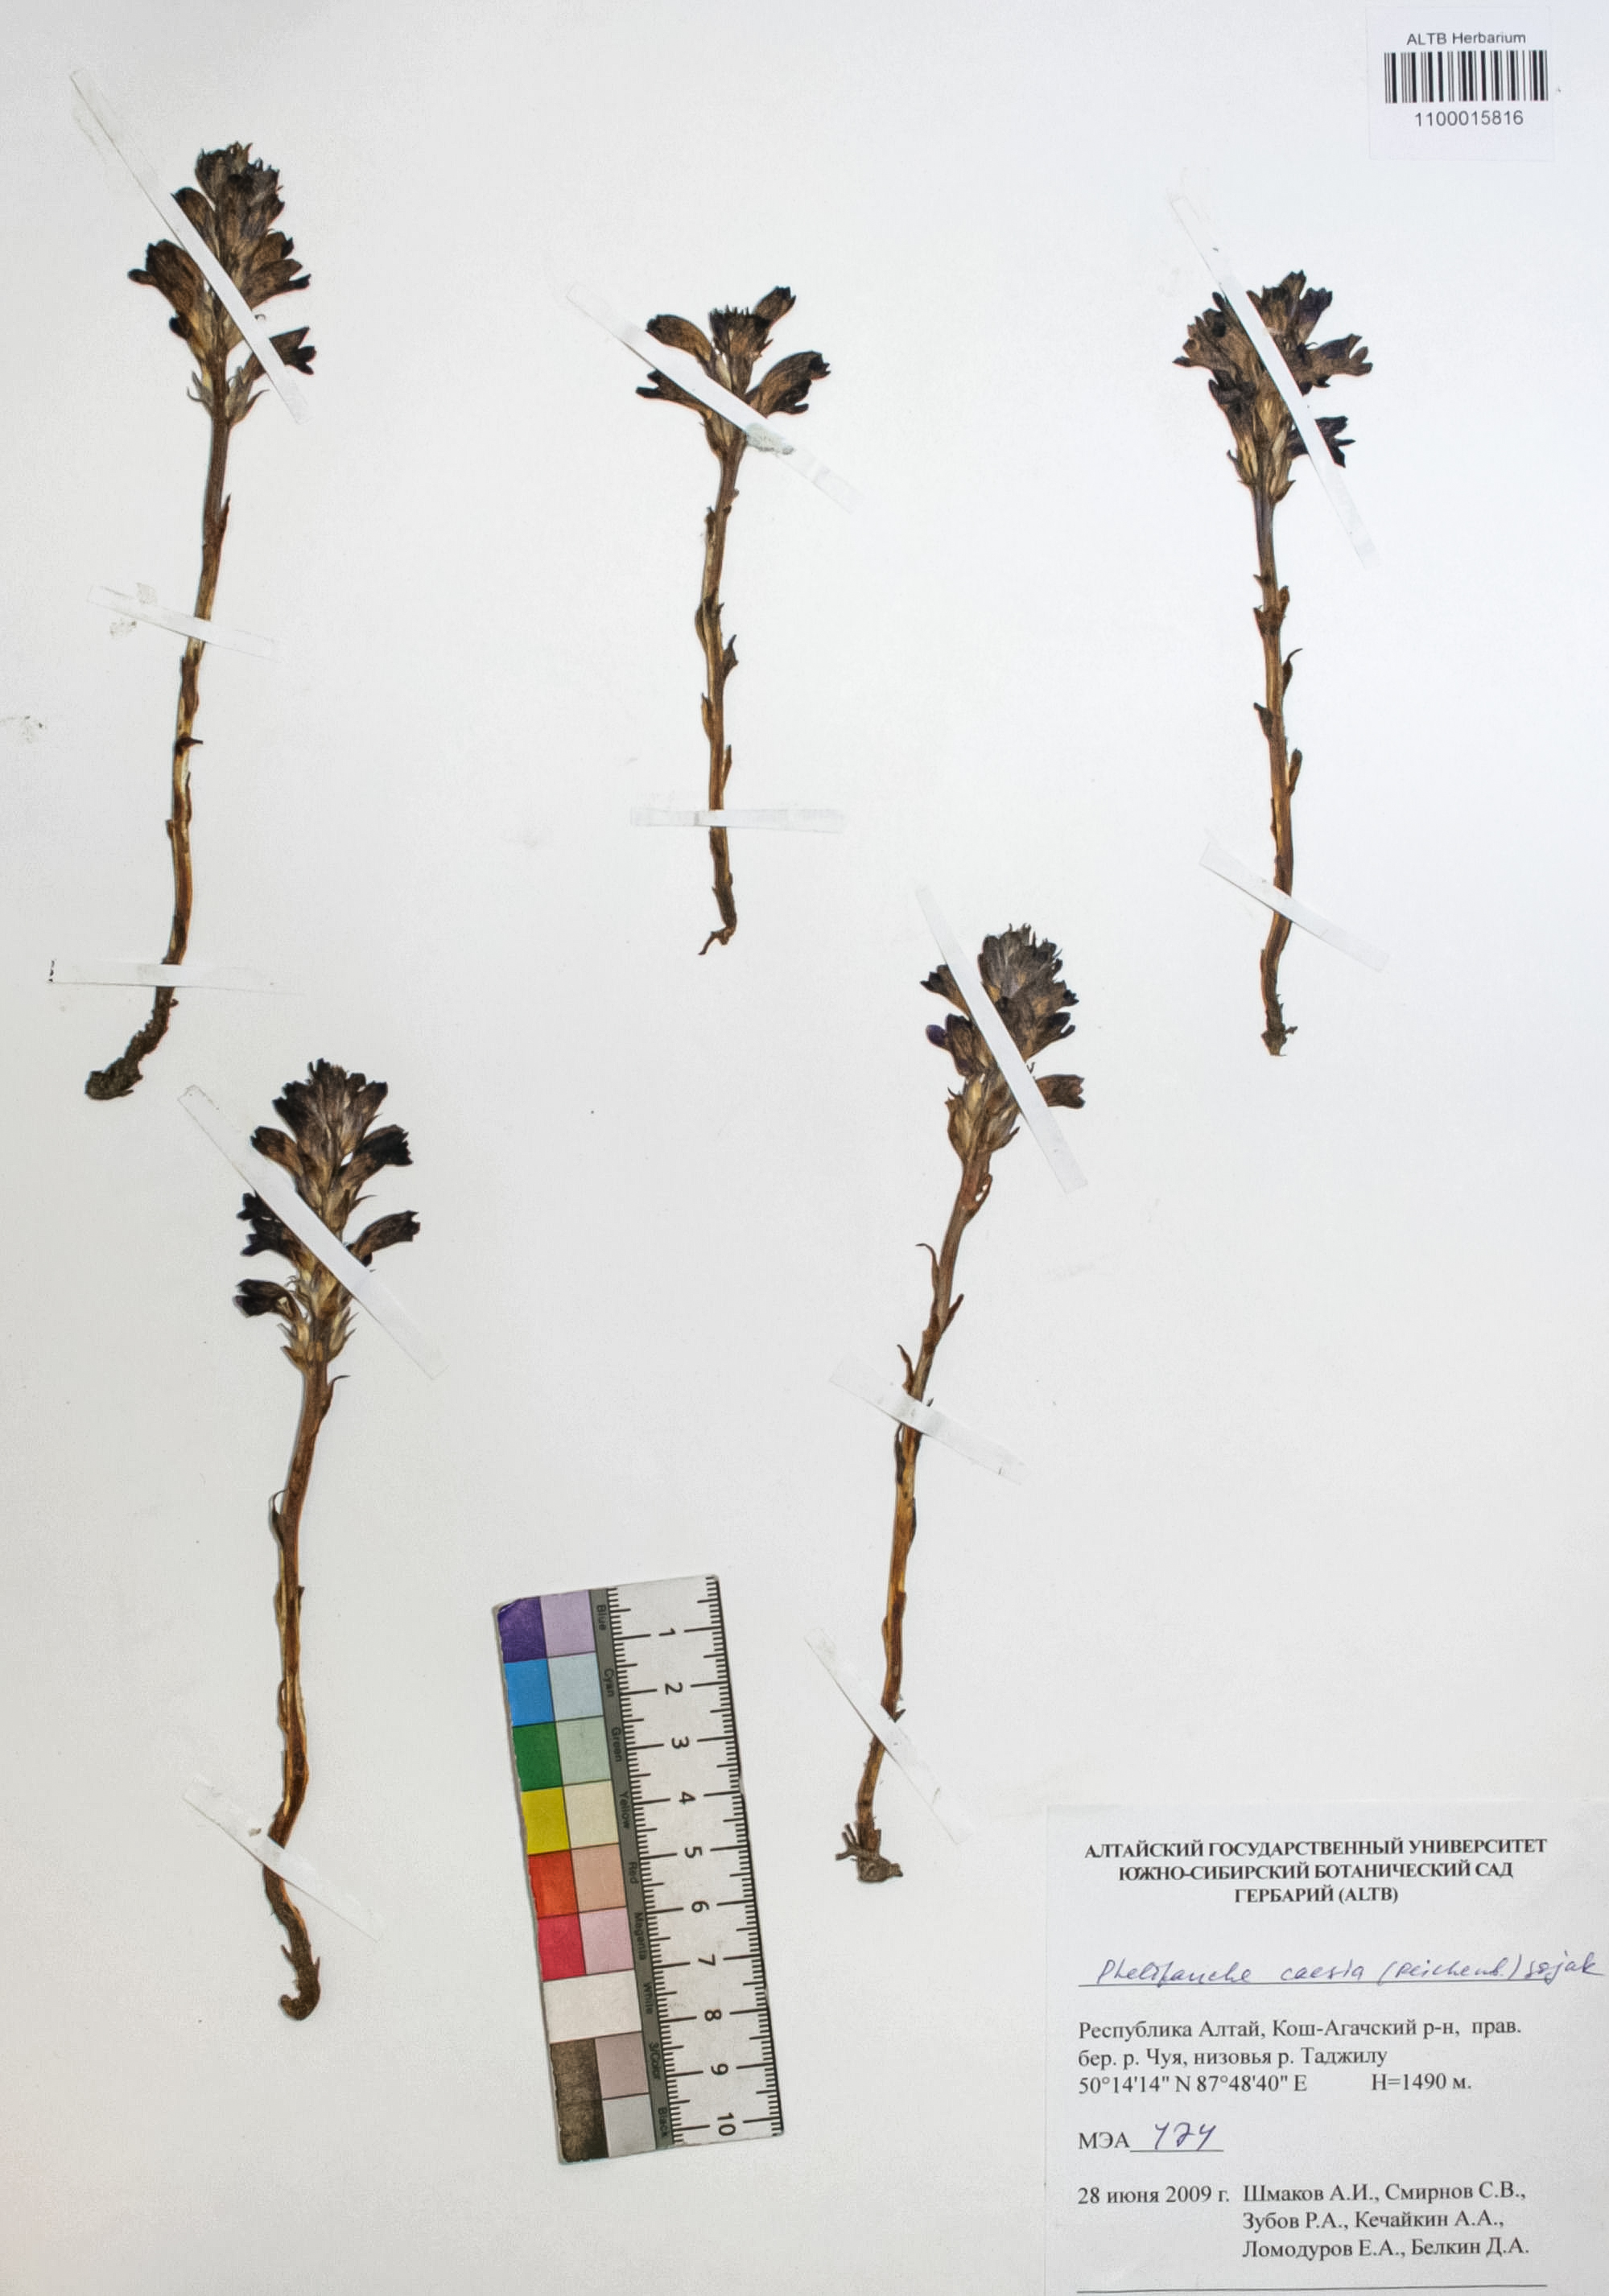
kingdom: Plantae
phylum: Tracheophyta
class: Magnoliopsida
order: Lamiales
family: Orobanchaceae
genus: Phelipanche
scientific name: Phelipanche caesia
